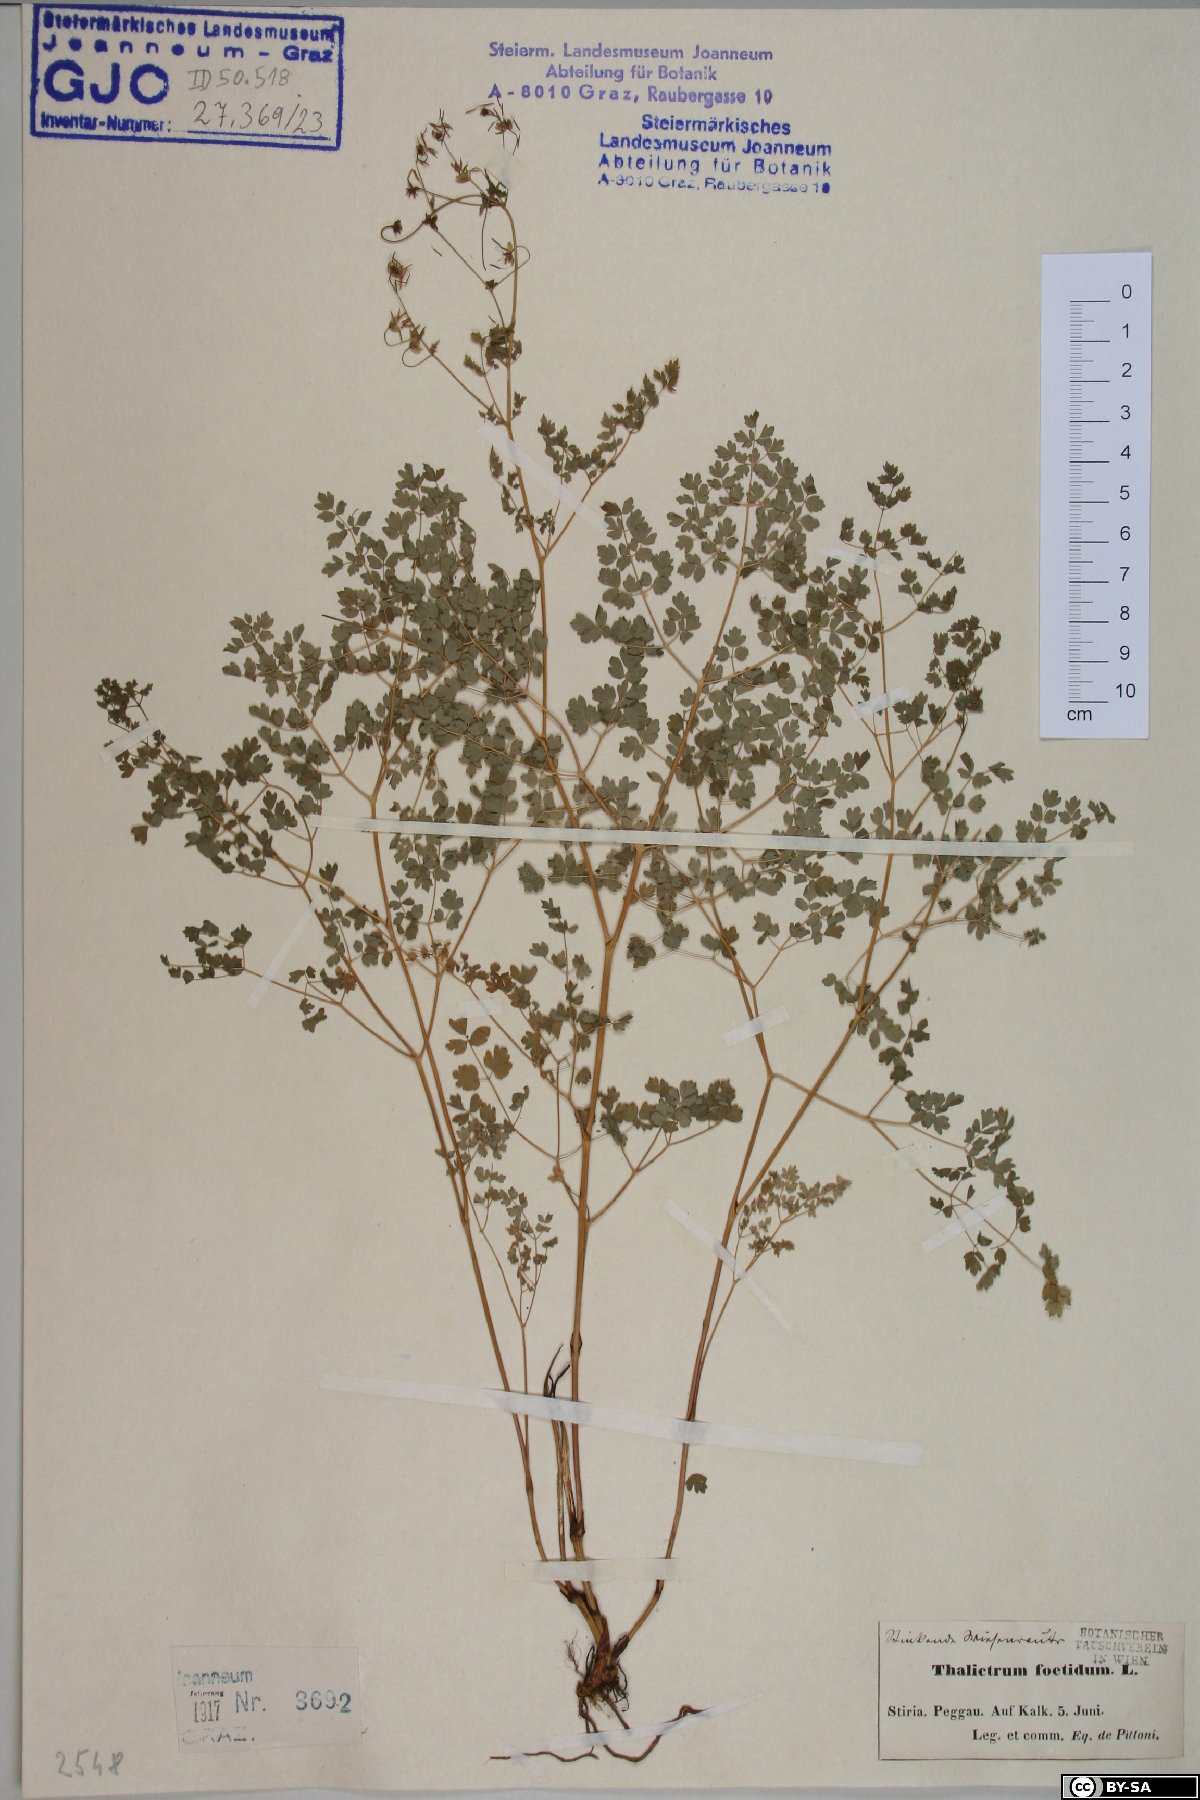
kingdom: Plantae
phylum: Tracheophyta
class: Magnoliopsida
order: Ranunculales
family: Ranunculaceae
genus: Thalictrum
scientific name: Thalictrum foetidum
